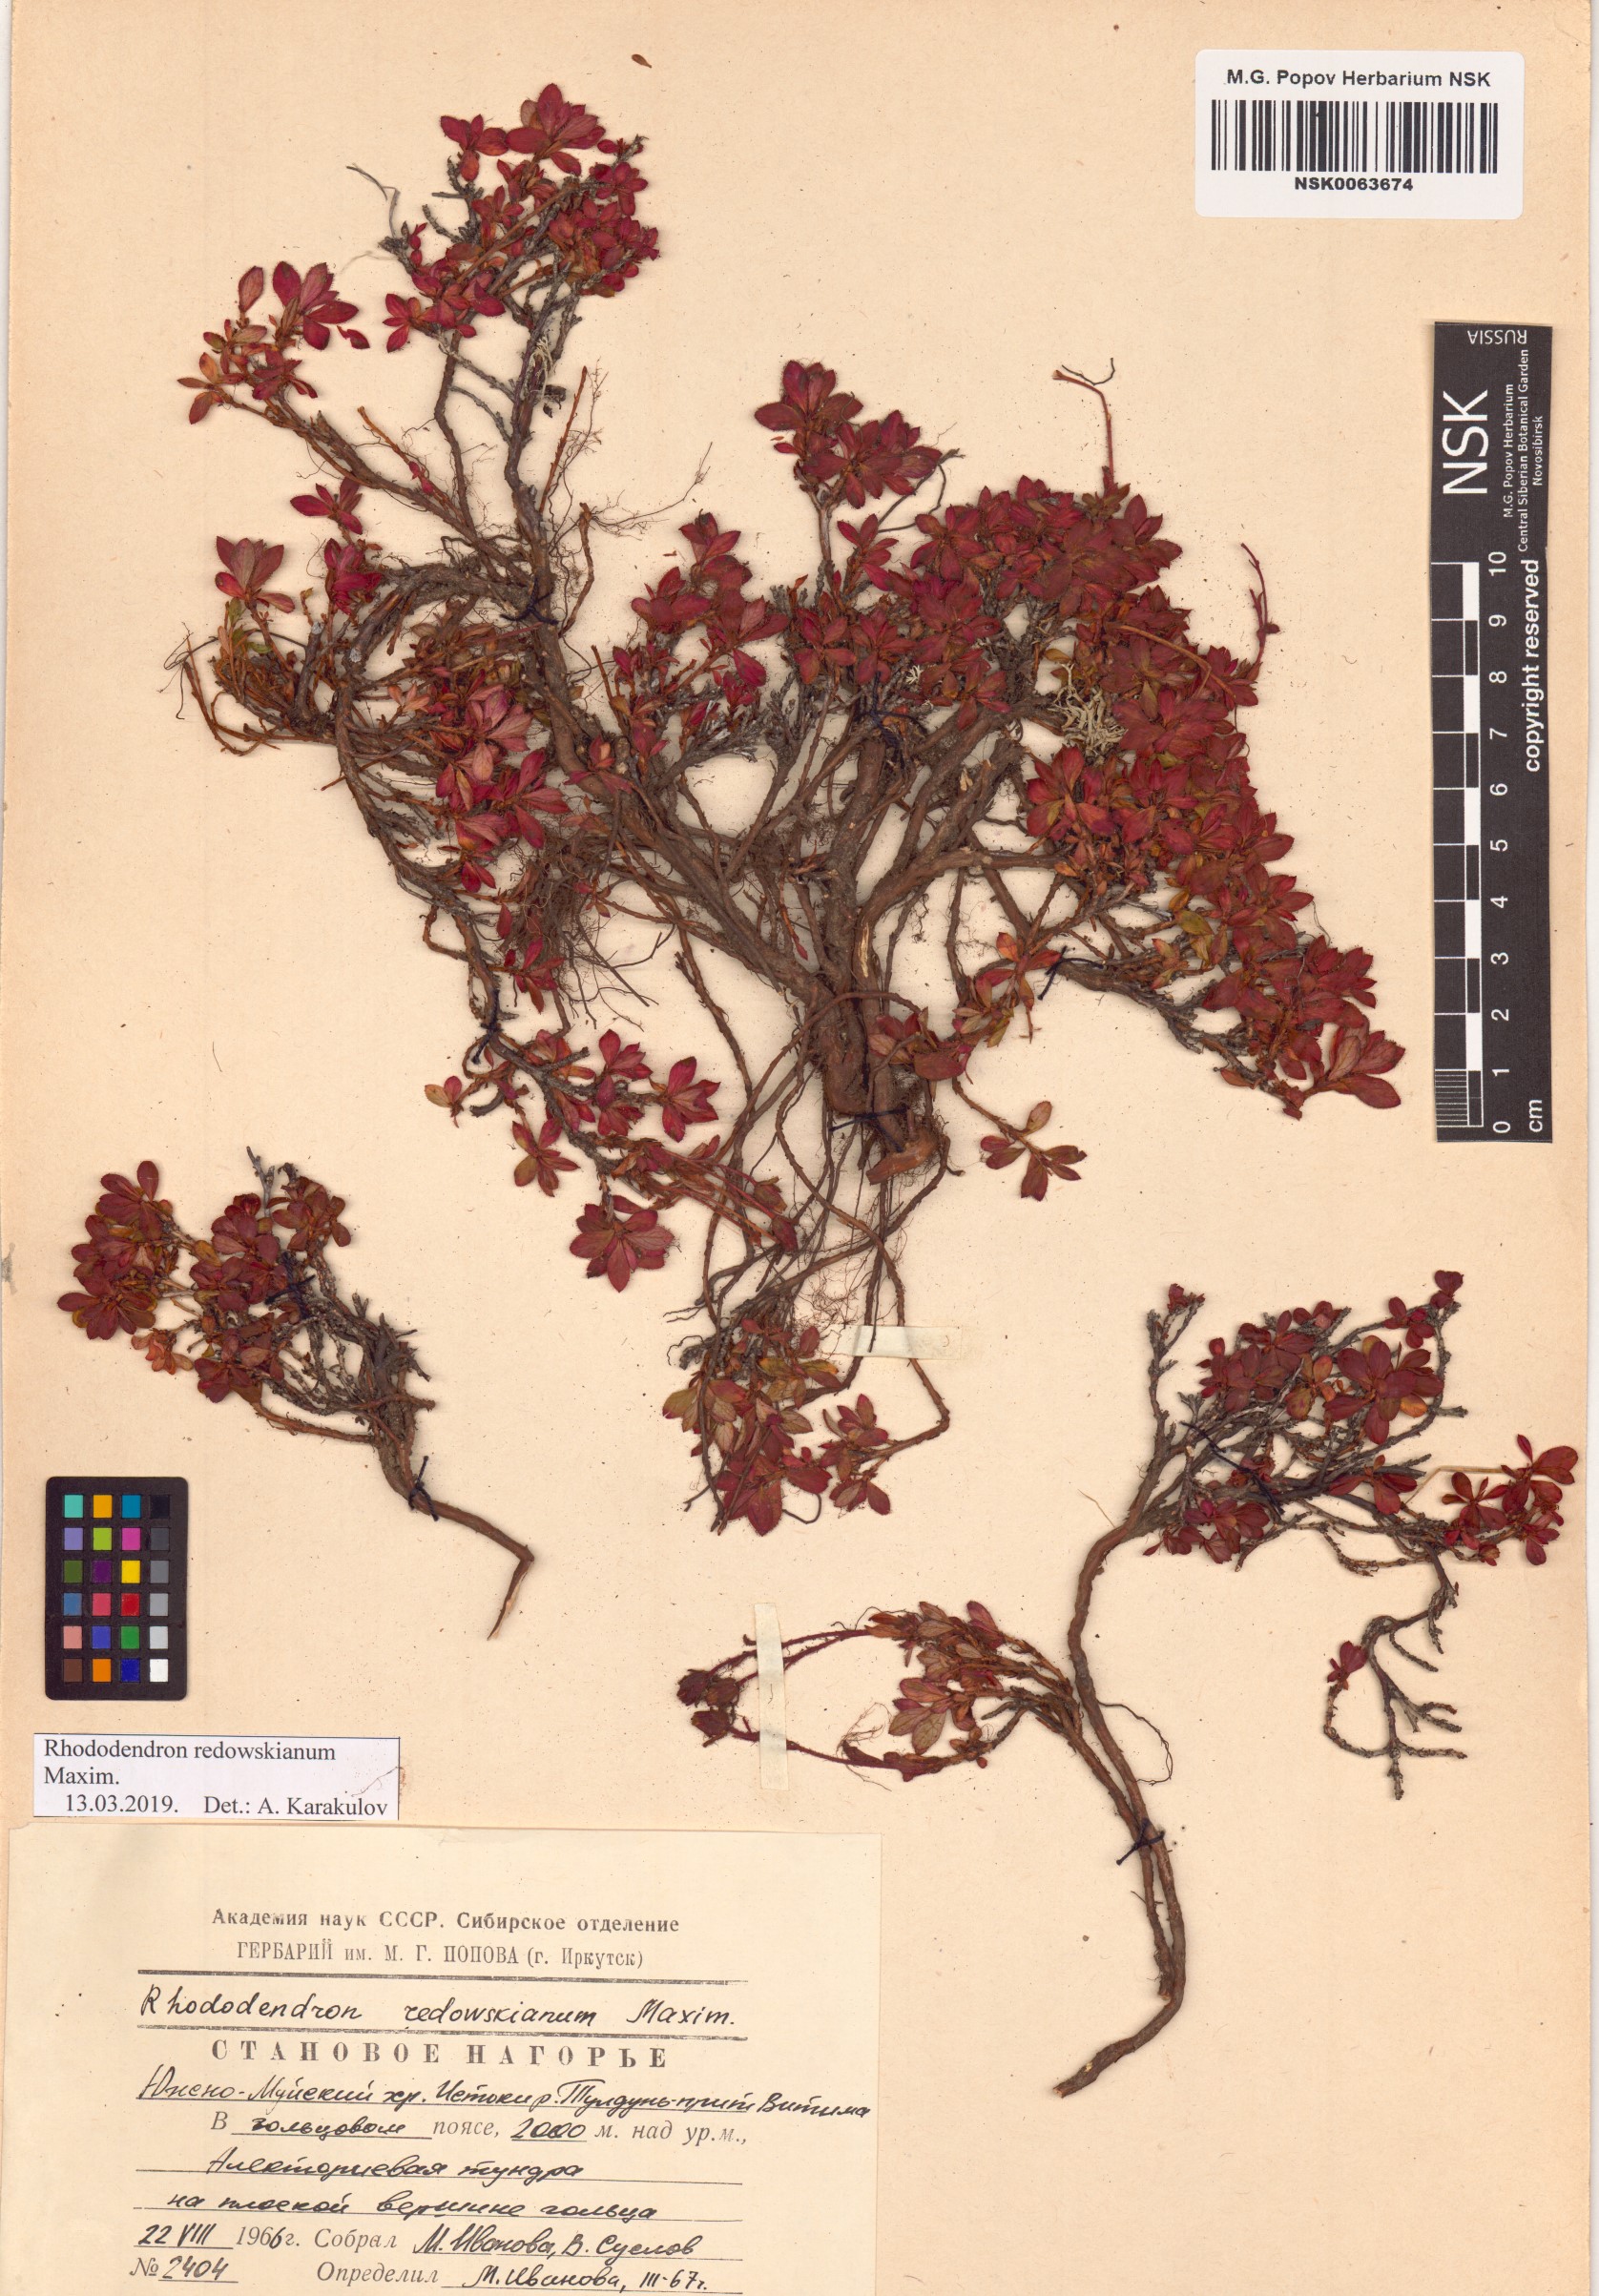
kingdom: Plantae
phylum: Tracheophyta
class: Magnoliopsida
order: Ericales
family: Ericaceae
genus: Rhododendron
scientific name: Rhododendron redowskianum
